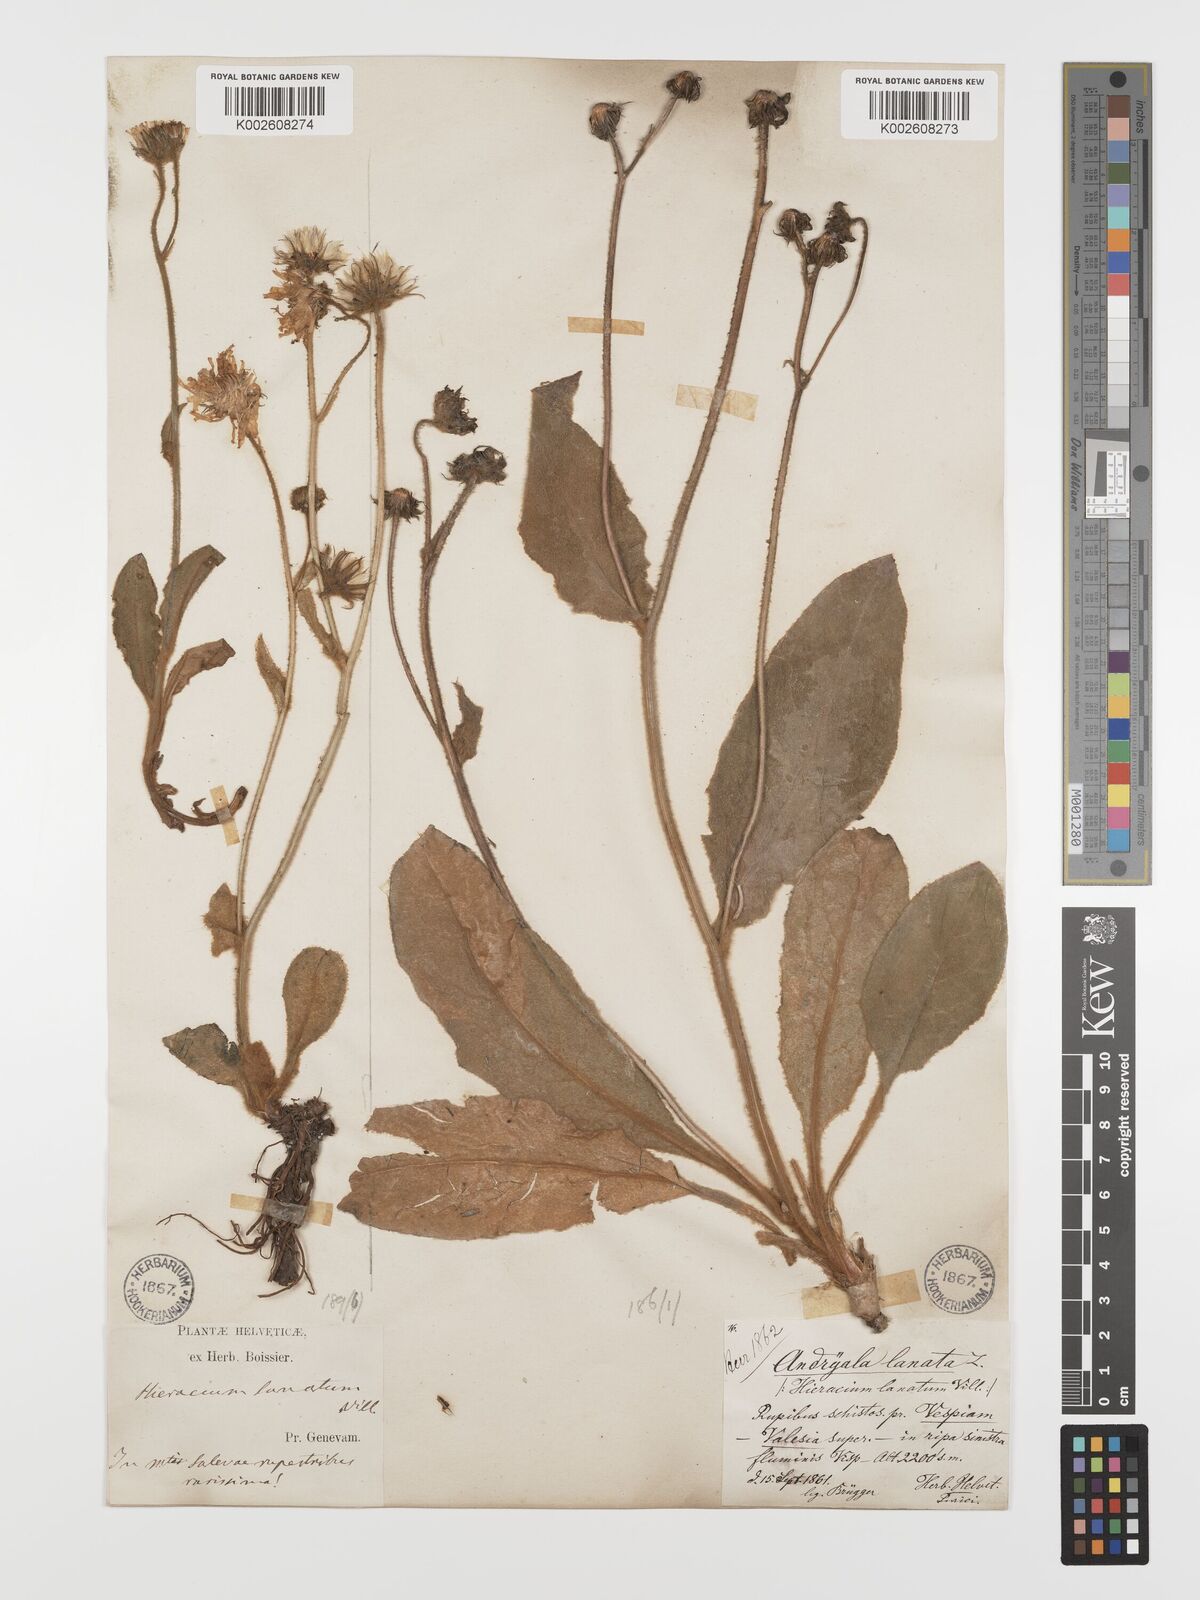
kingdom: Plantae
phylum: Tracheophyta
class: Magnoliopsida
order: Asterales
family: Asteraceae
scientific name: Asteraceae
